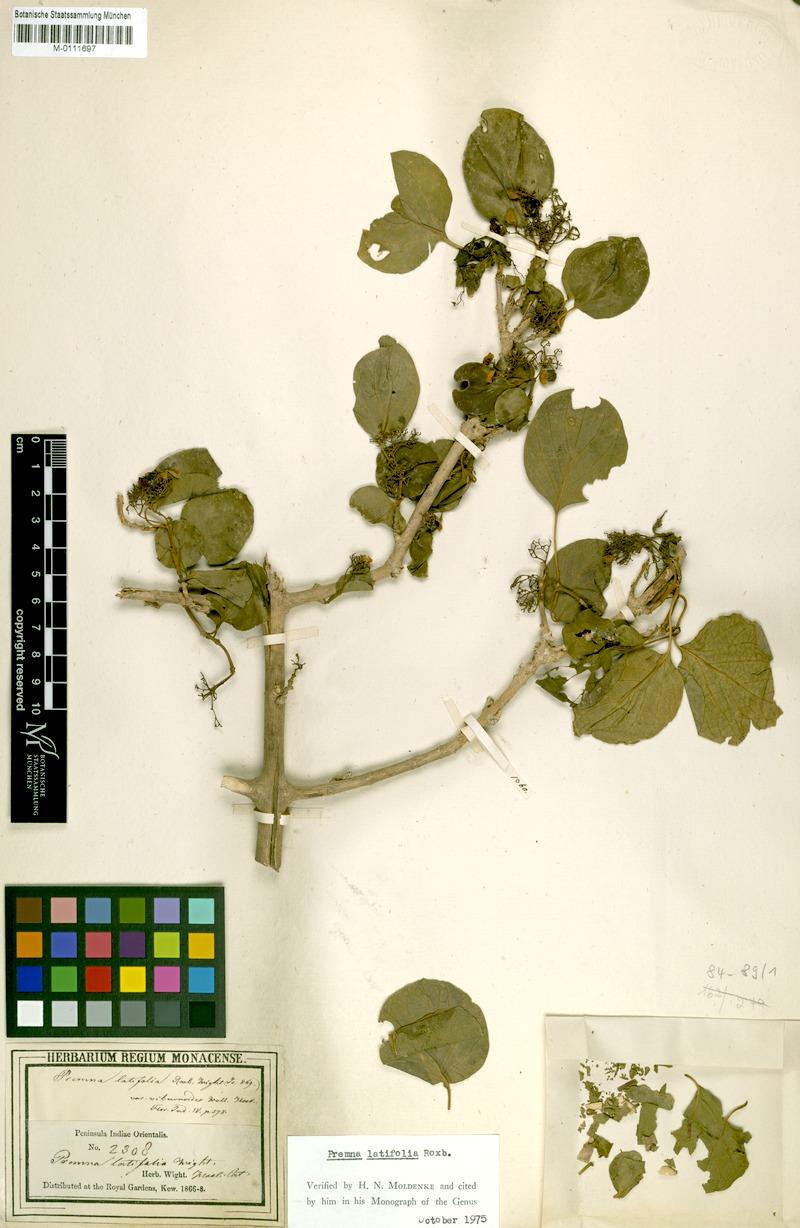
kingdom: Plantae
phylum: Tracheophyta
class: Magnoliopsida
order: Lamiales
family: Lamiaceae
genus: Premna
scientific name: Premna mollissima
